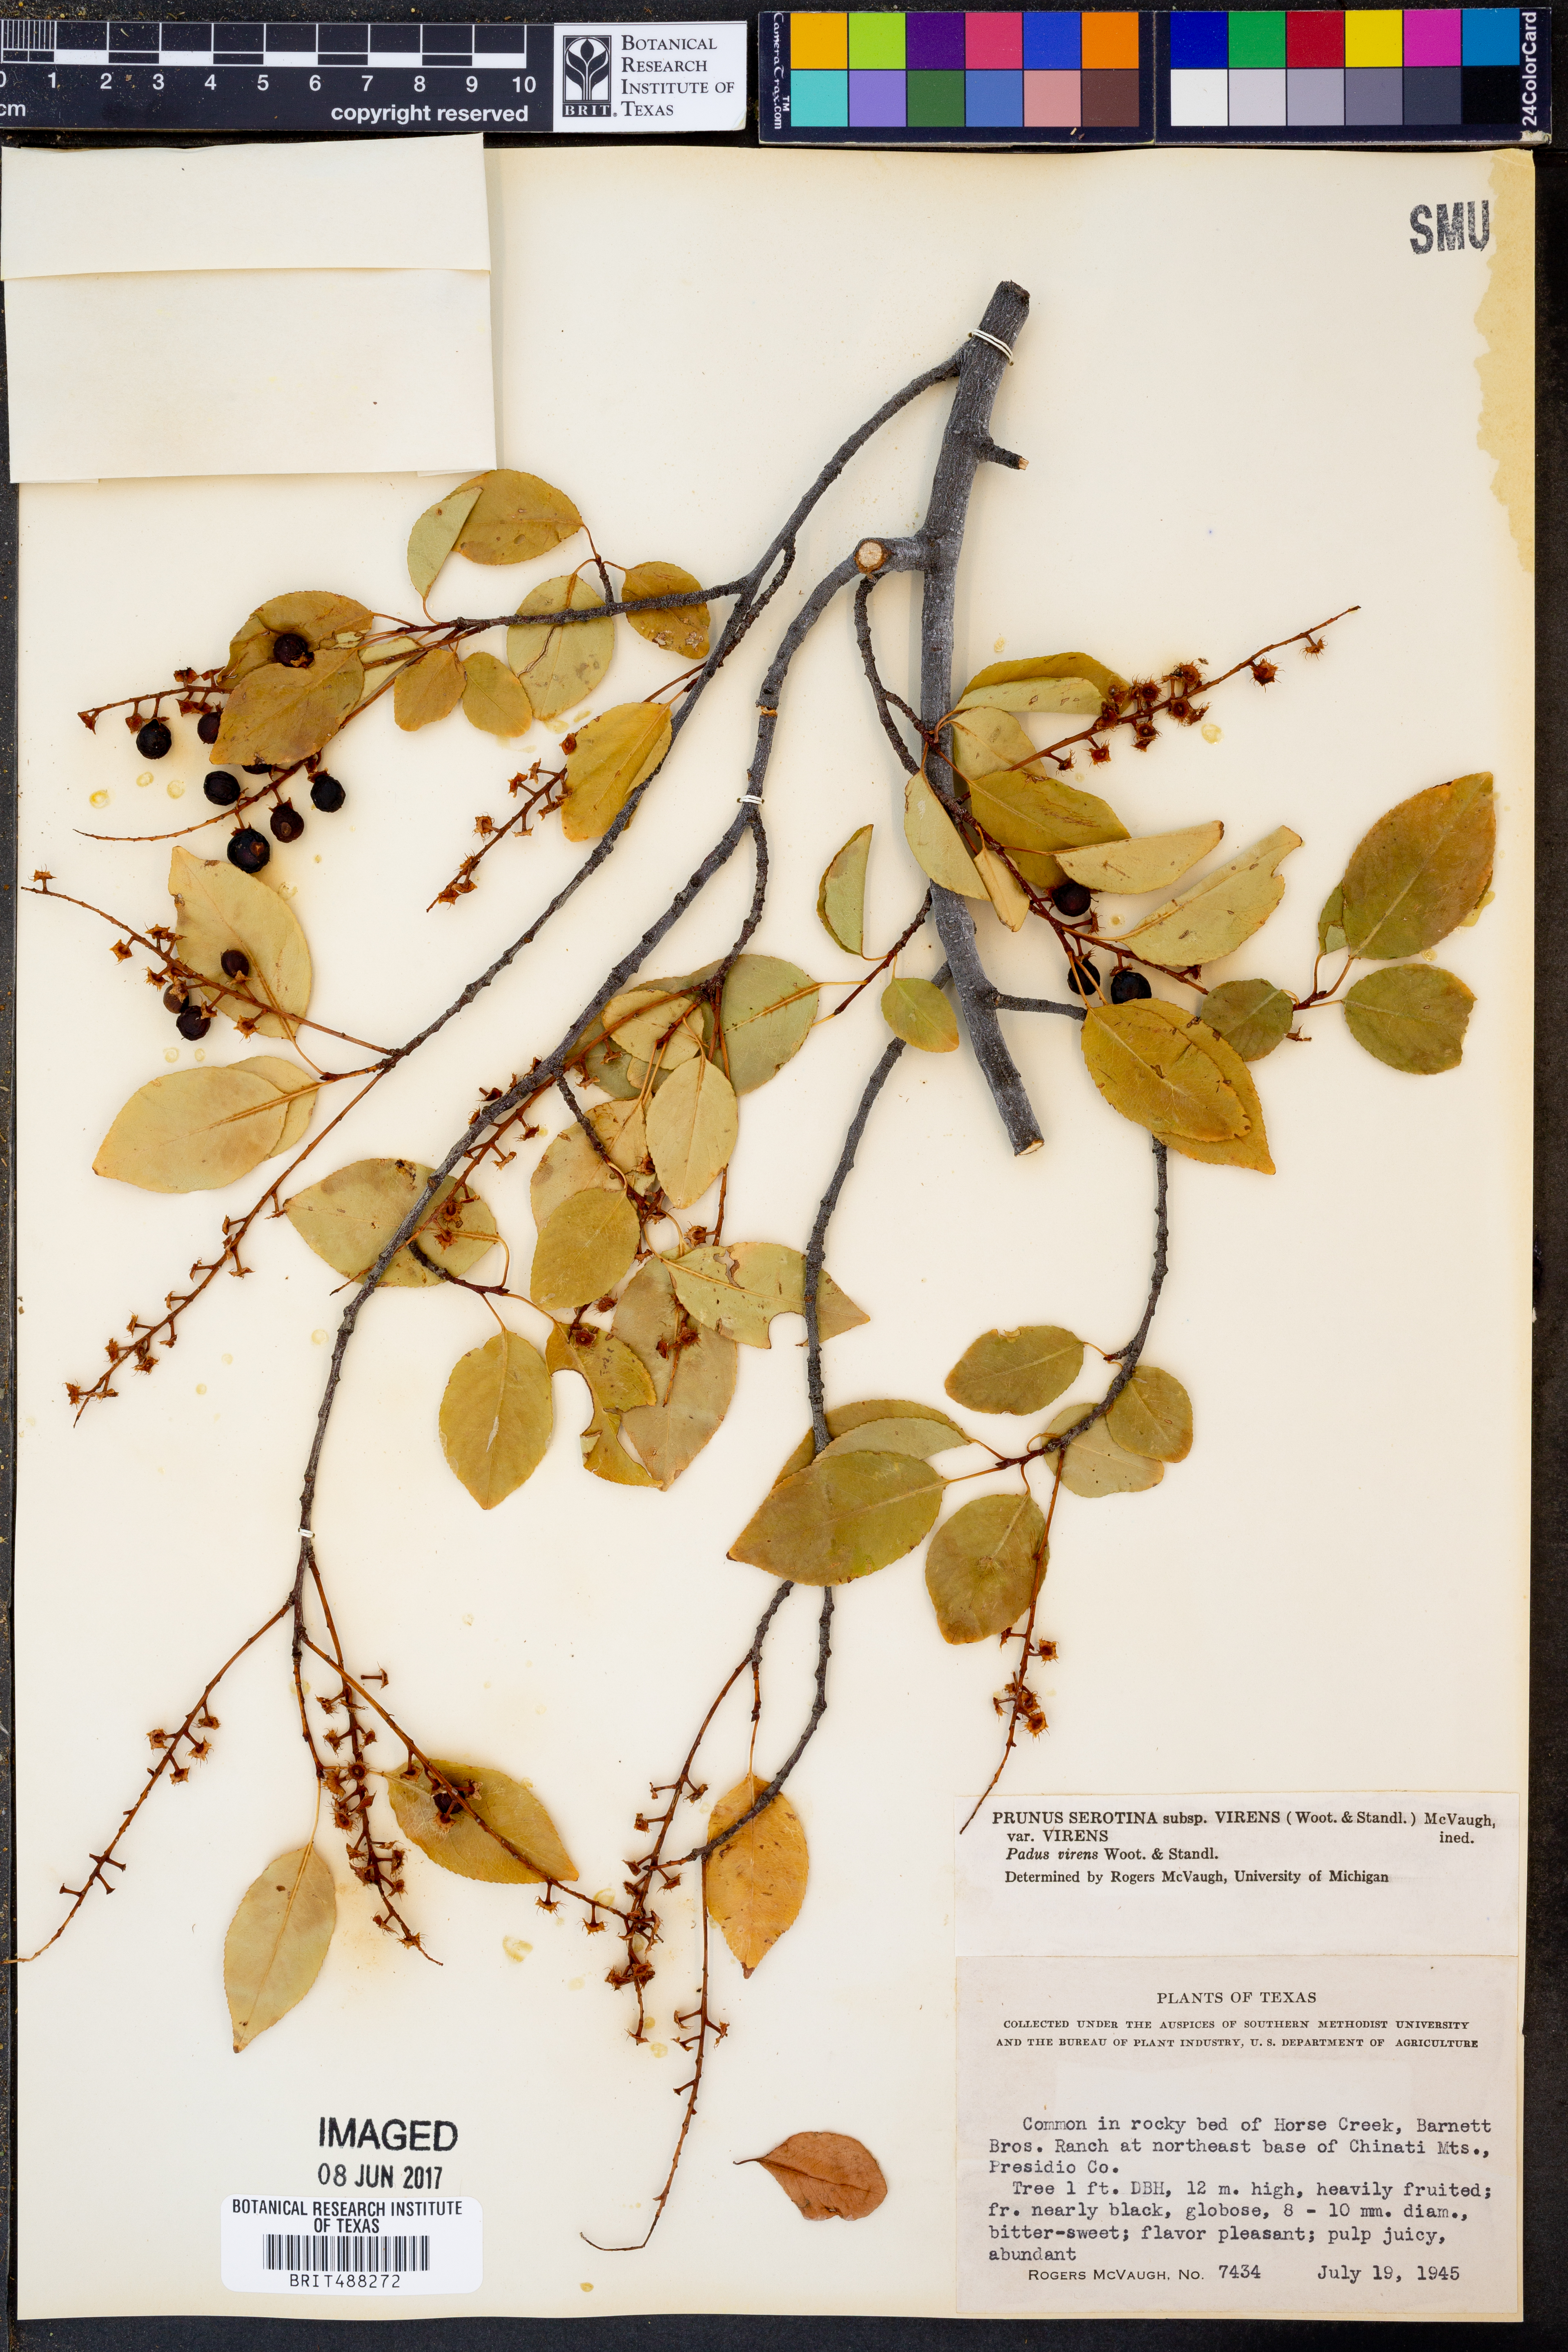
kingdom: Plantae
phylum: Tracheophyta
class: Magnoliopsida
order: Rosales
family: Rosaceae
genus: Prunus
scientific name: Prunus serotina
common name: Black cherry
